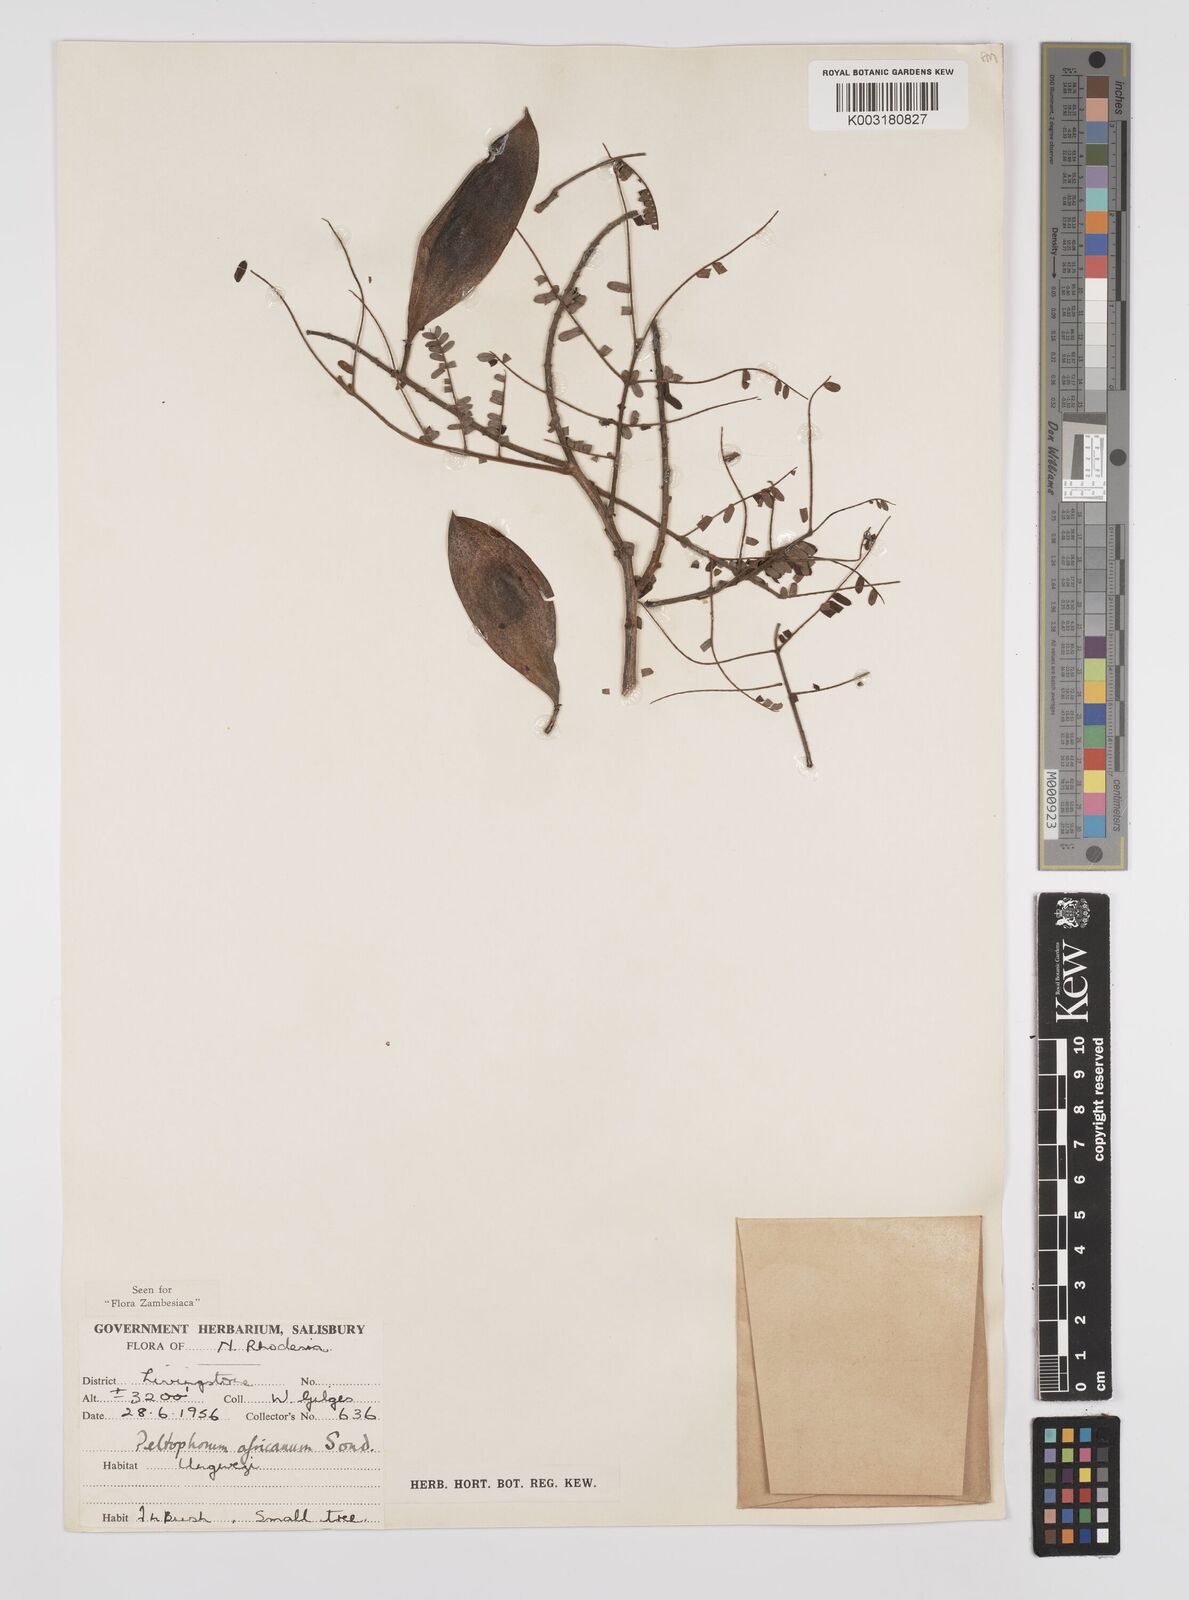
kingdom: Plantae
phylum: Tracheophyta
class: Magnoliopsida
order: Fabales
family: Fabaceae
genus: Peltophorum
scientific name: Peltophorum africanum
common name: African black wattle
